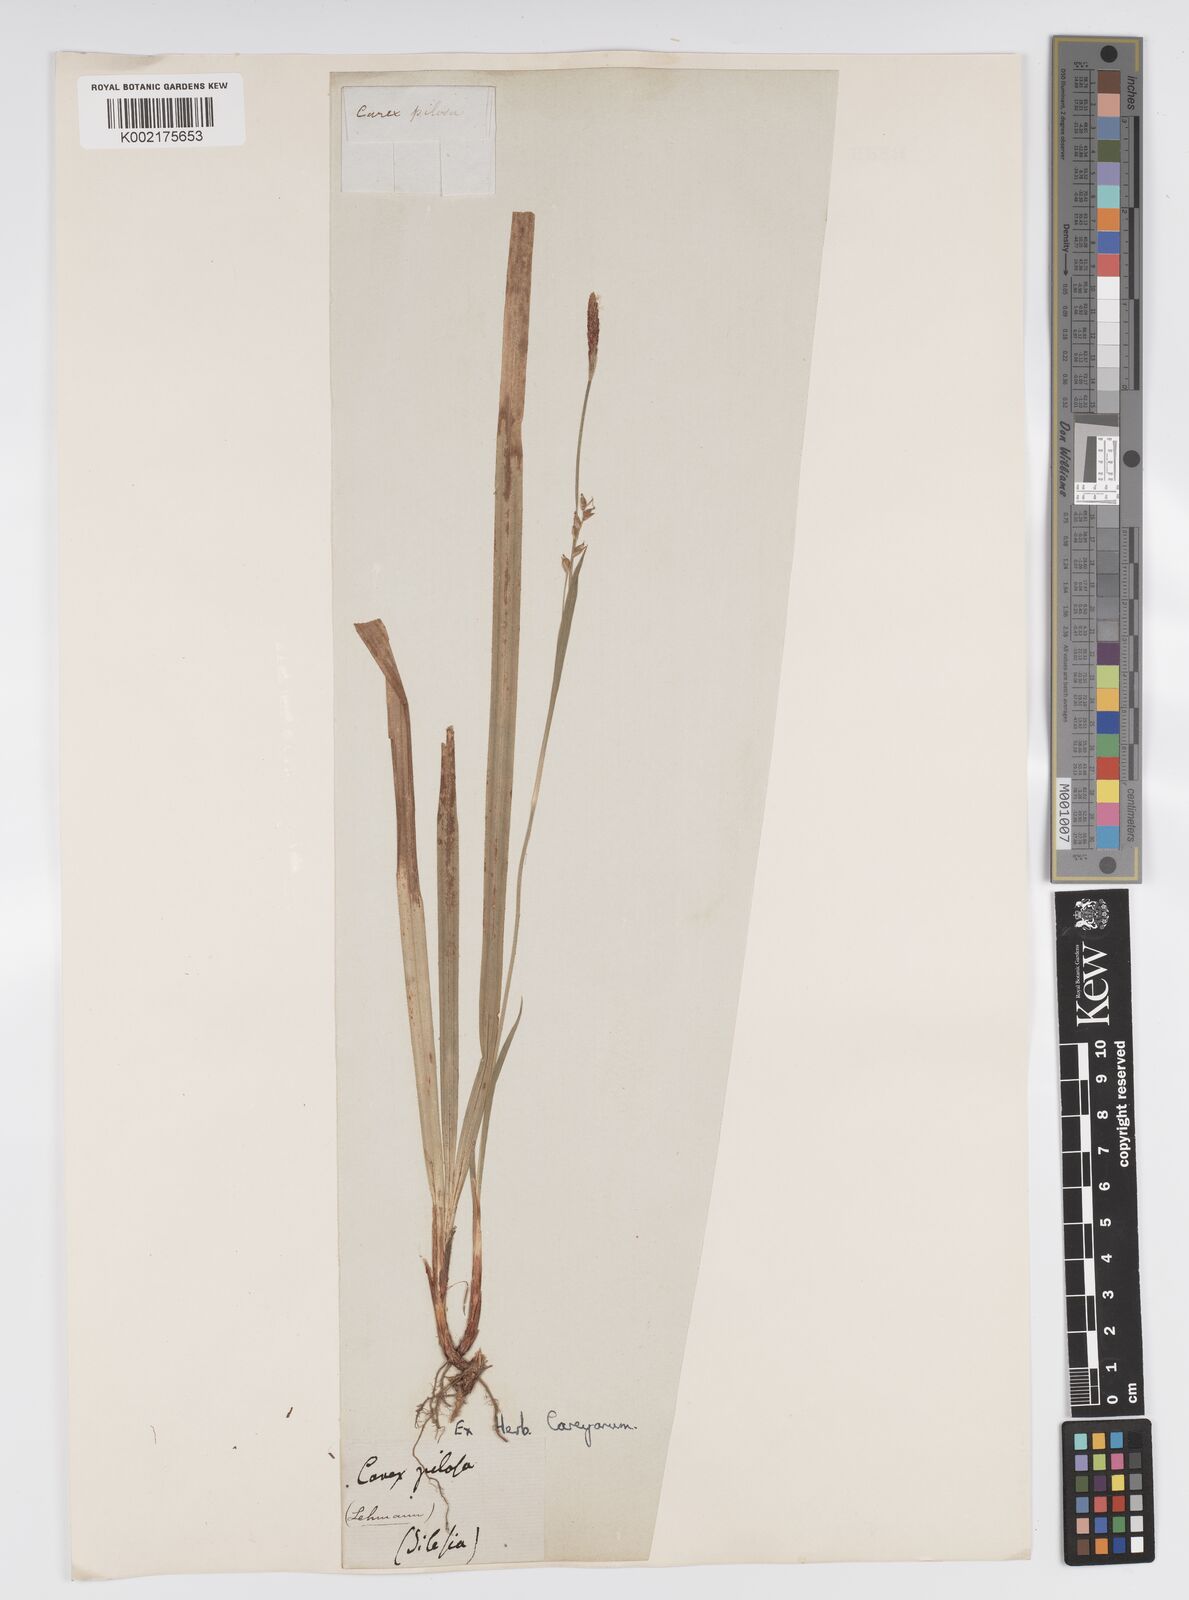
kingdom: Plantae
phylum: Tracheophyta
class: Liliopsida
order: Poales
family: Cyperaceae
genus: Carex
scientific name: Carex pilosa
